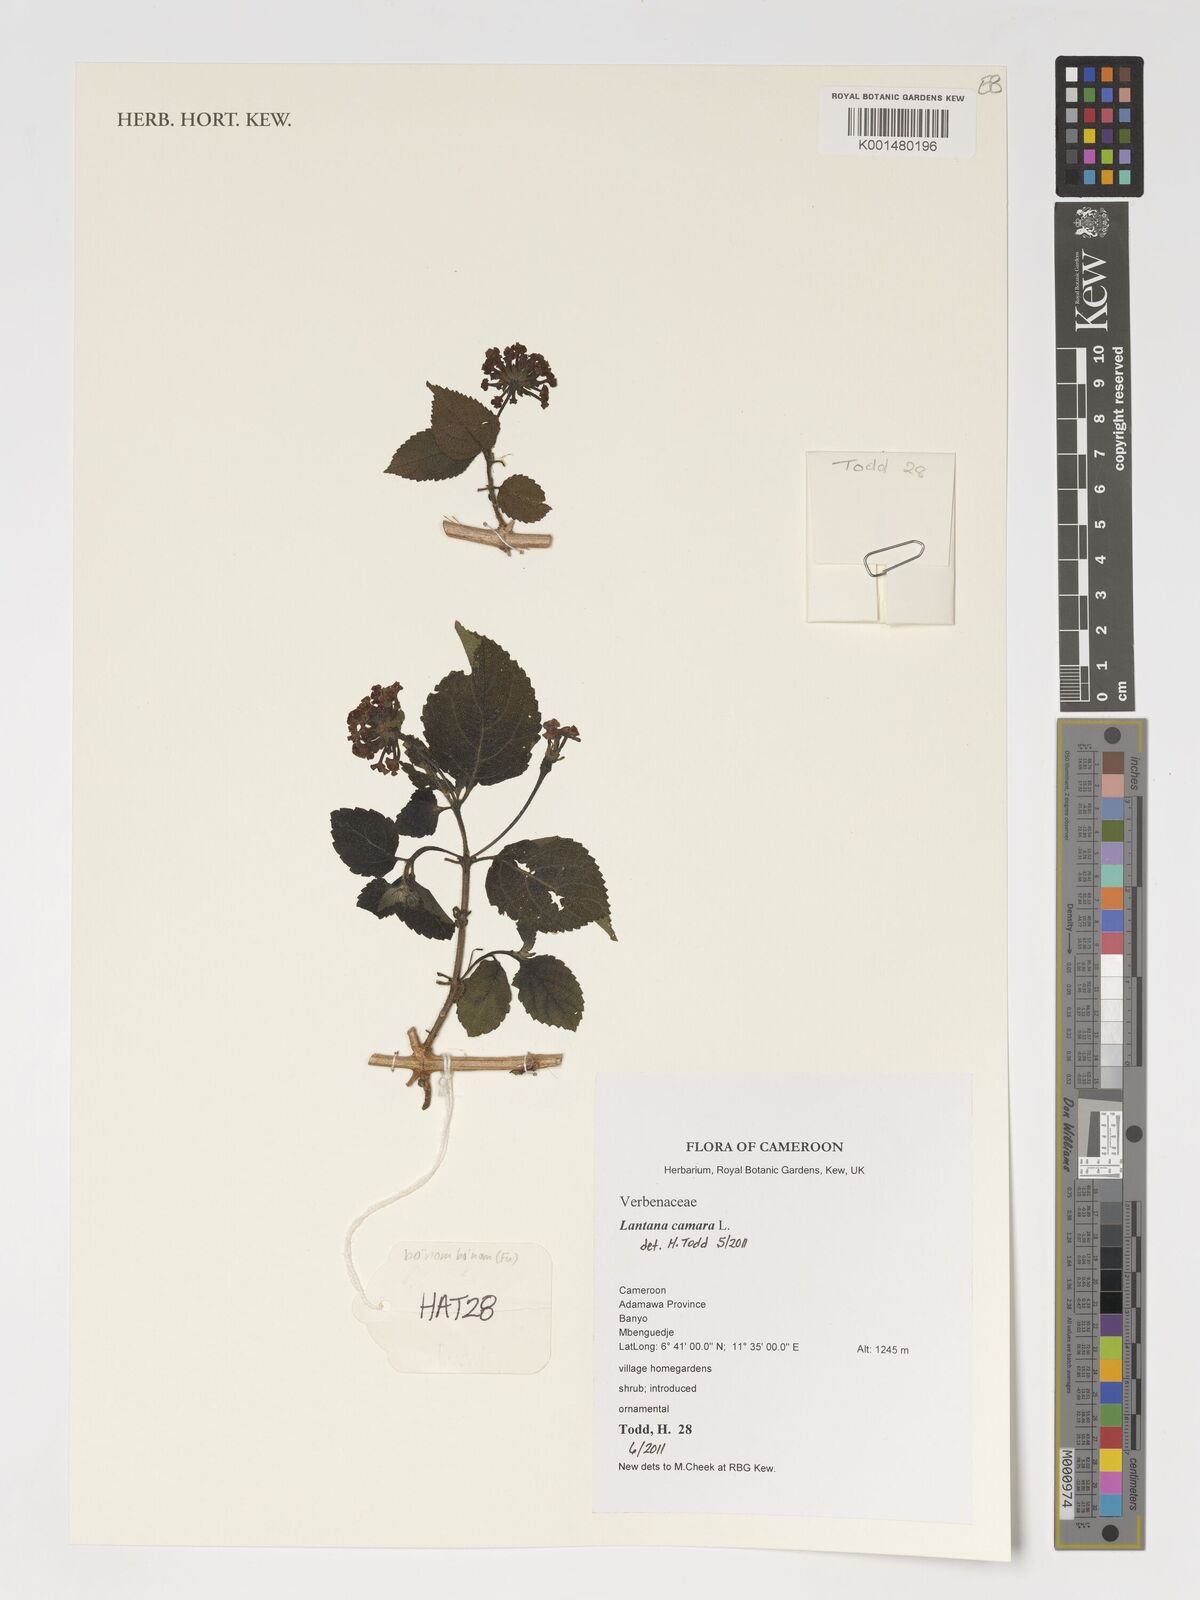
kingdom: Plantae
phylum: Tracheophyta
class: Magnoliopsida
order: Lamiales
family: Verbenaceae
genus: Lantana
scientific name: Lantana camara
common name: Lantana
